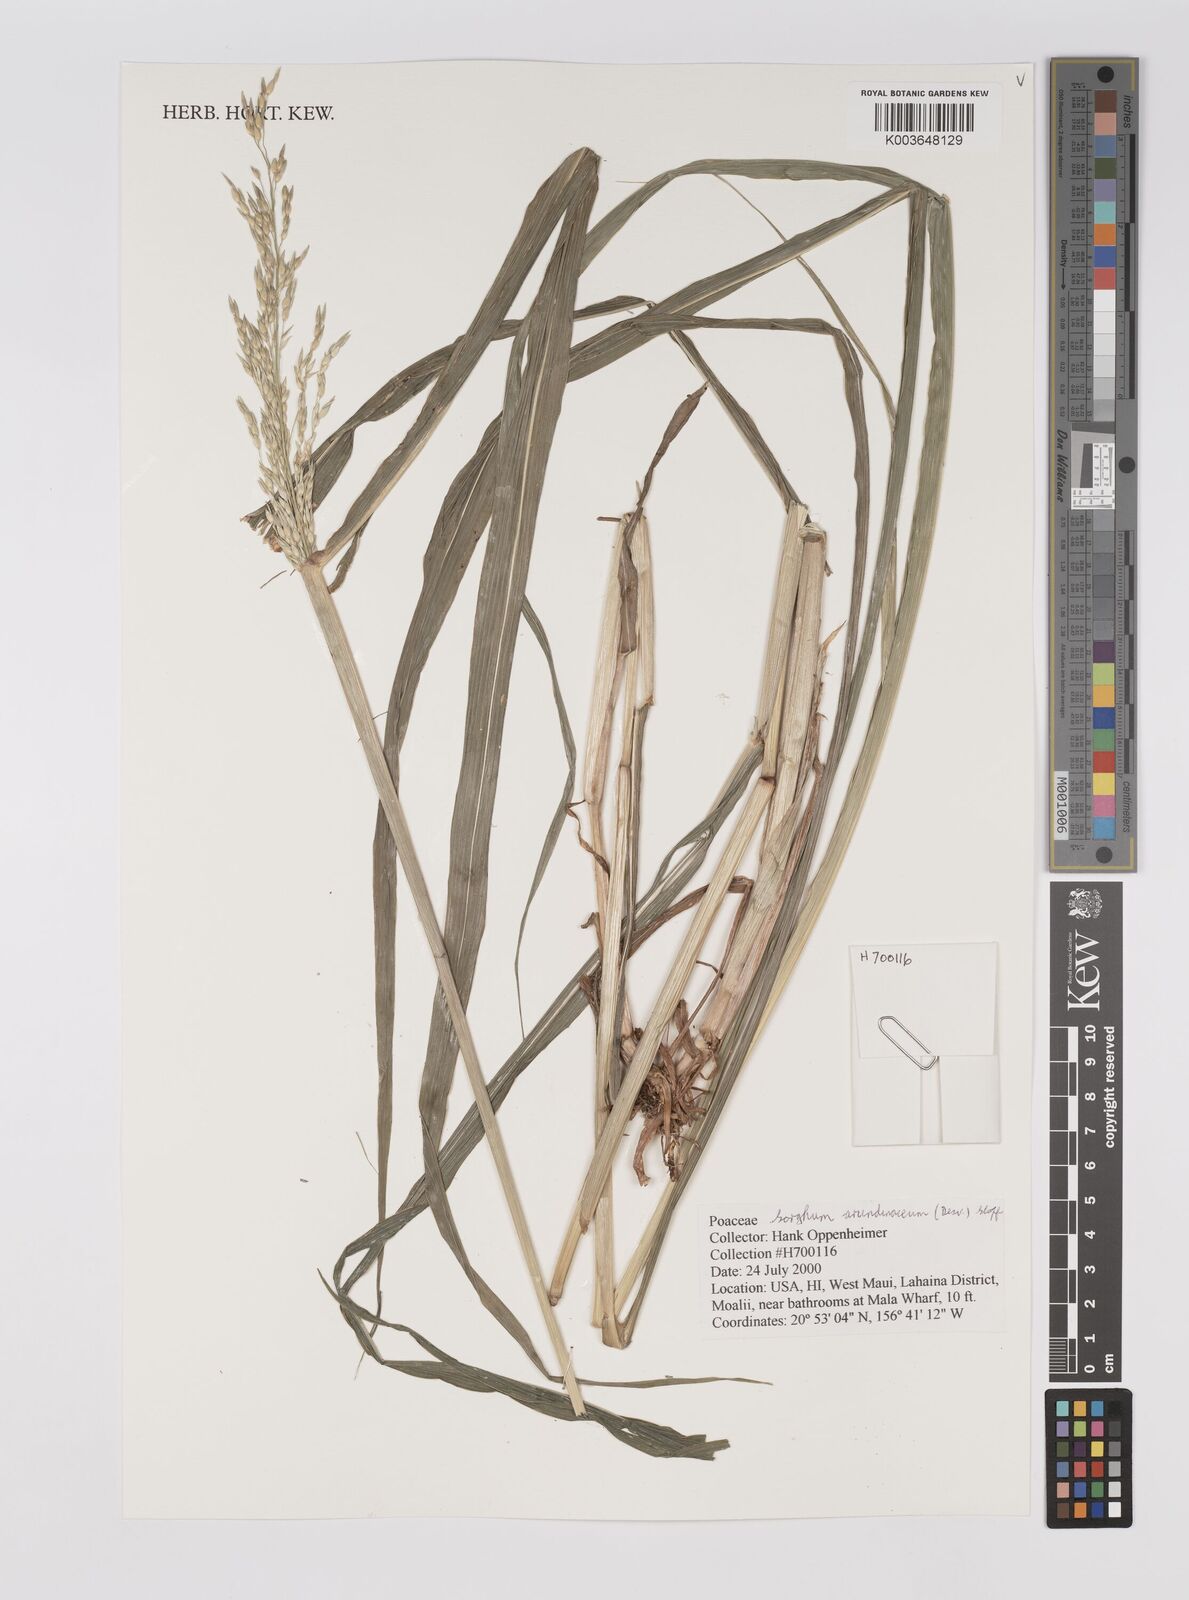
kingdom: Plantae
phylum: Tracheophyta
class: Liliopsida
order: Poales
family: Poaceae
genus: Sorghum
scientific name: Sorghum arundinaceum
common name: Sorghum
